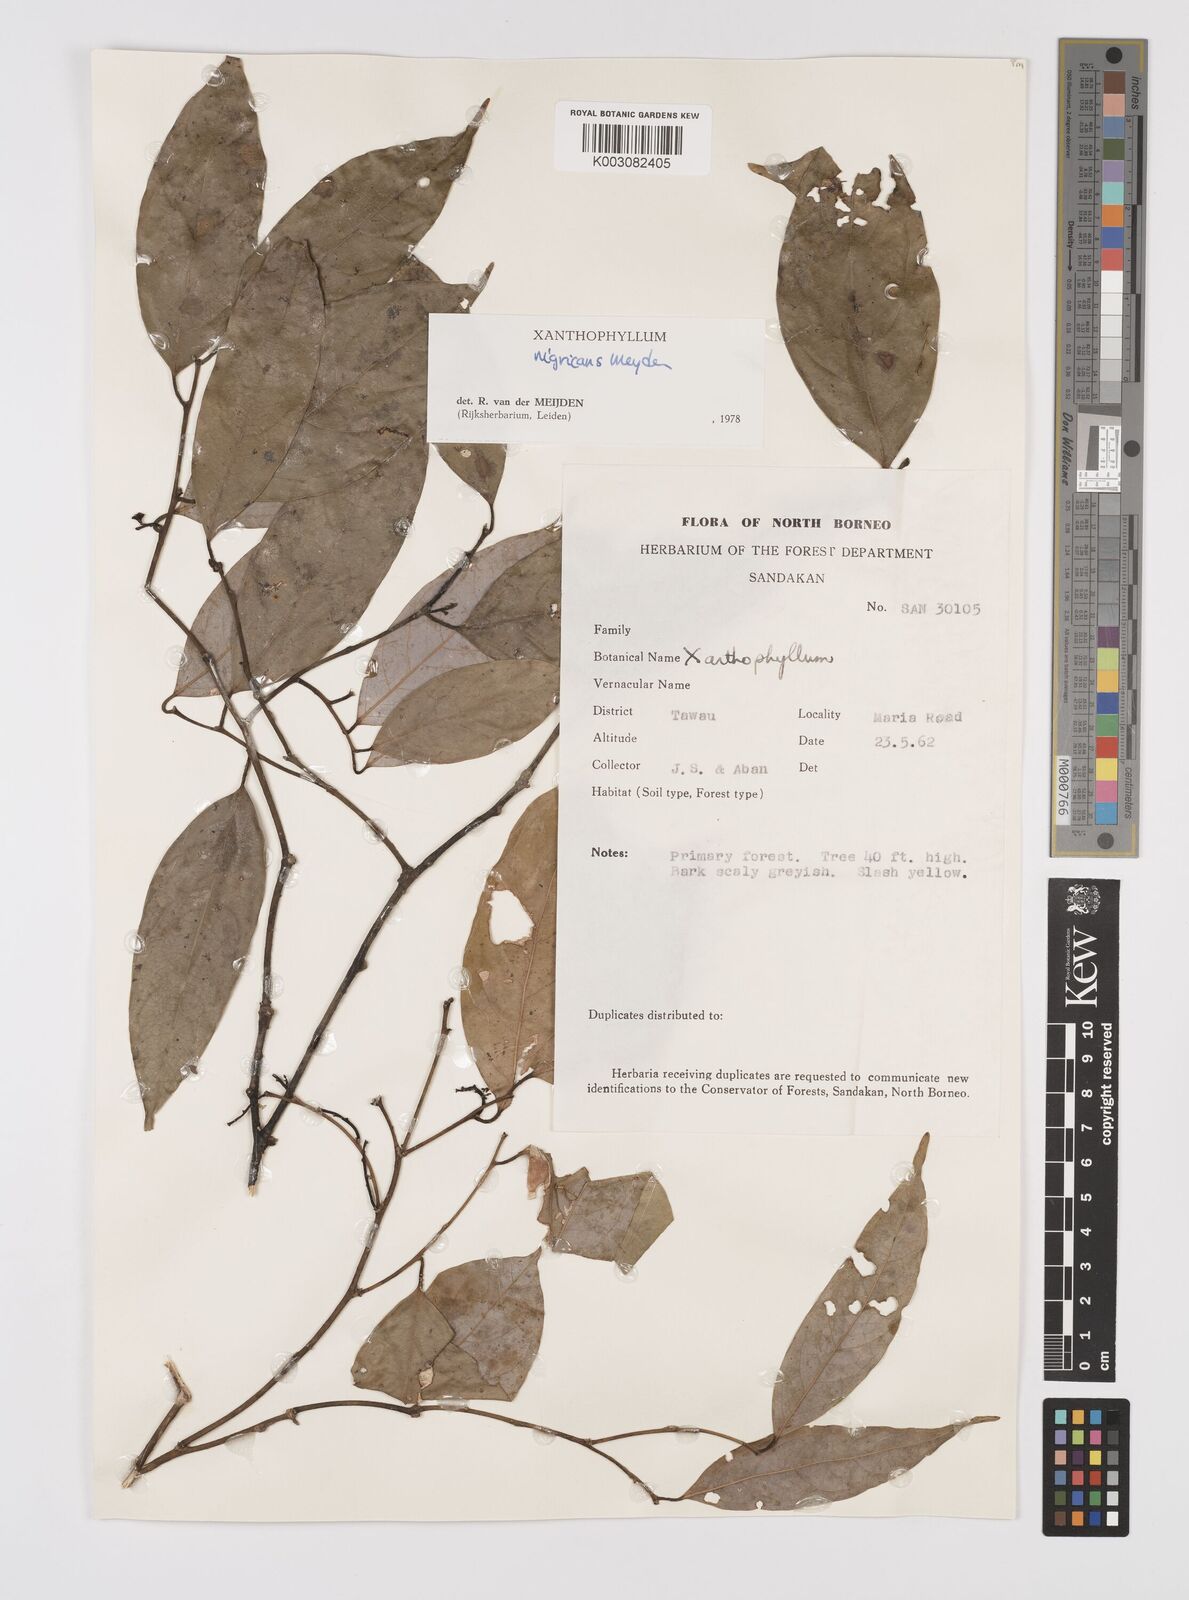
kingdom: Plantae
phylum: Tracheophyta
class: Magnoliopsida
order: Fabales
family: Polygalaceae
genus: Xanthophyllum
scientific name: Xanthophyllum nigricans
